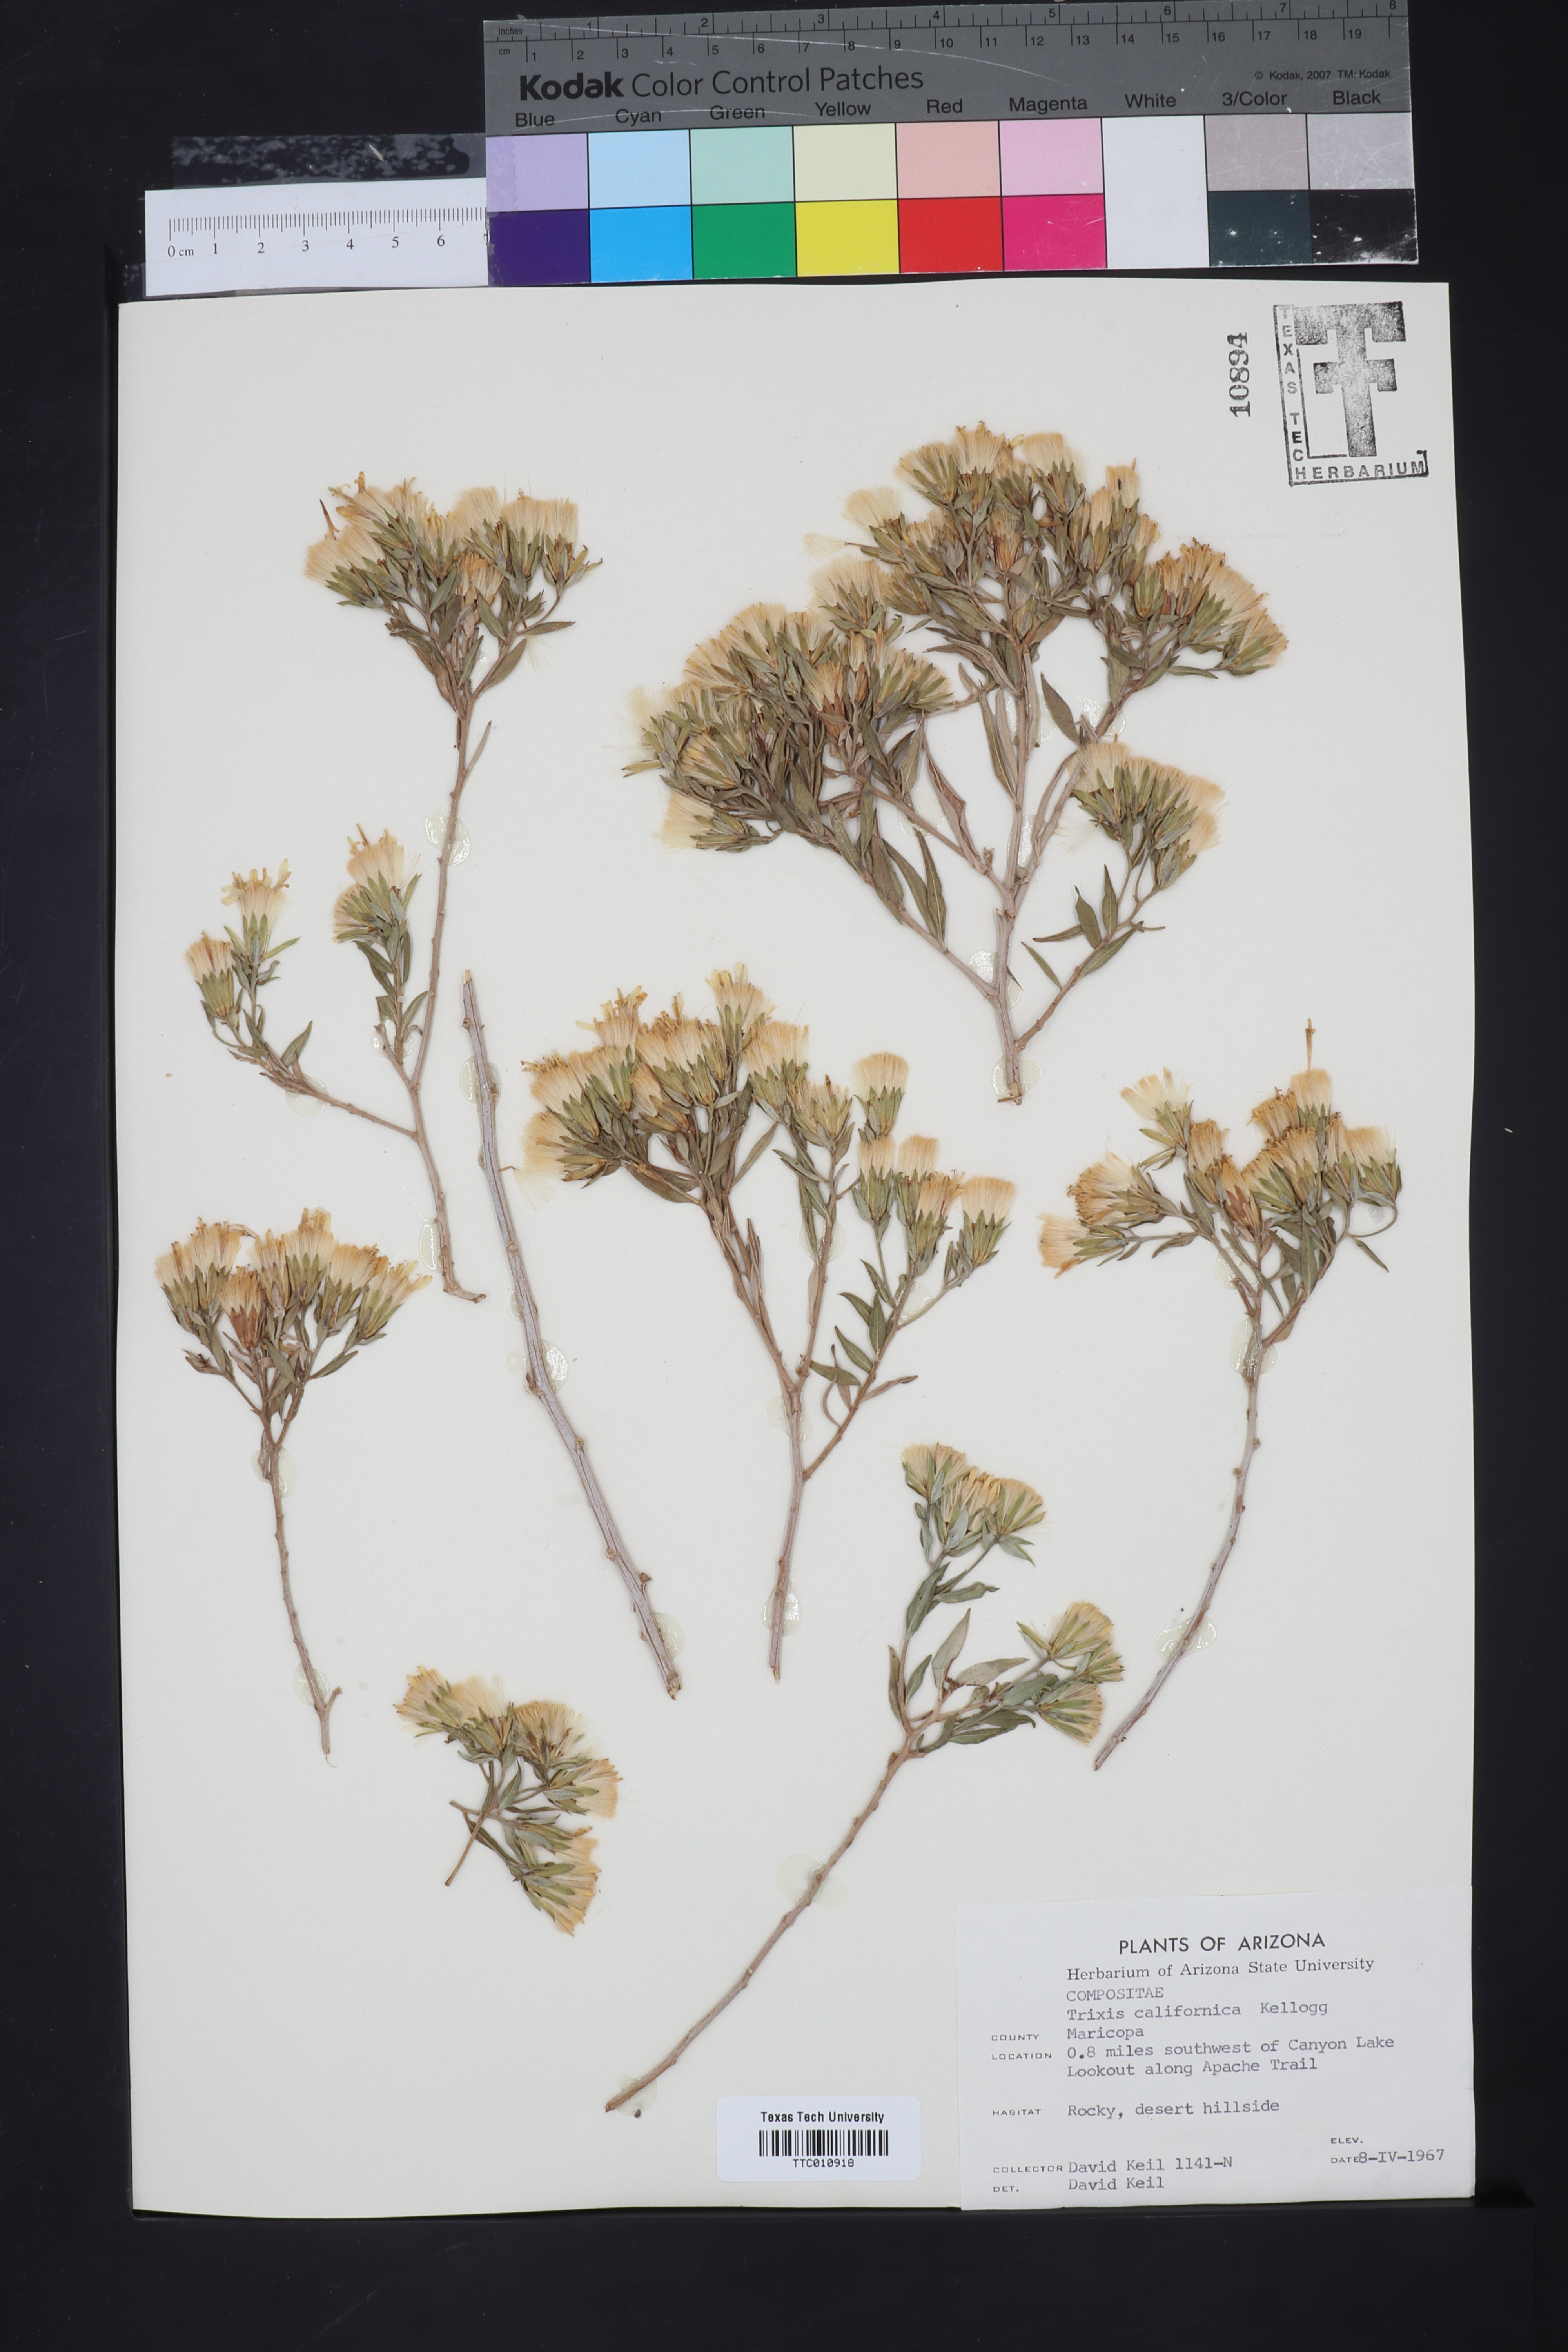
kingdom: Plantae
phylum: Tracheophyta
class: Magnoliopsida
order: Asterales
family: Asteraceae
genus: Trixis
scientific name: Trixis californica
